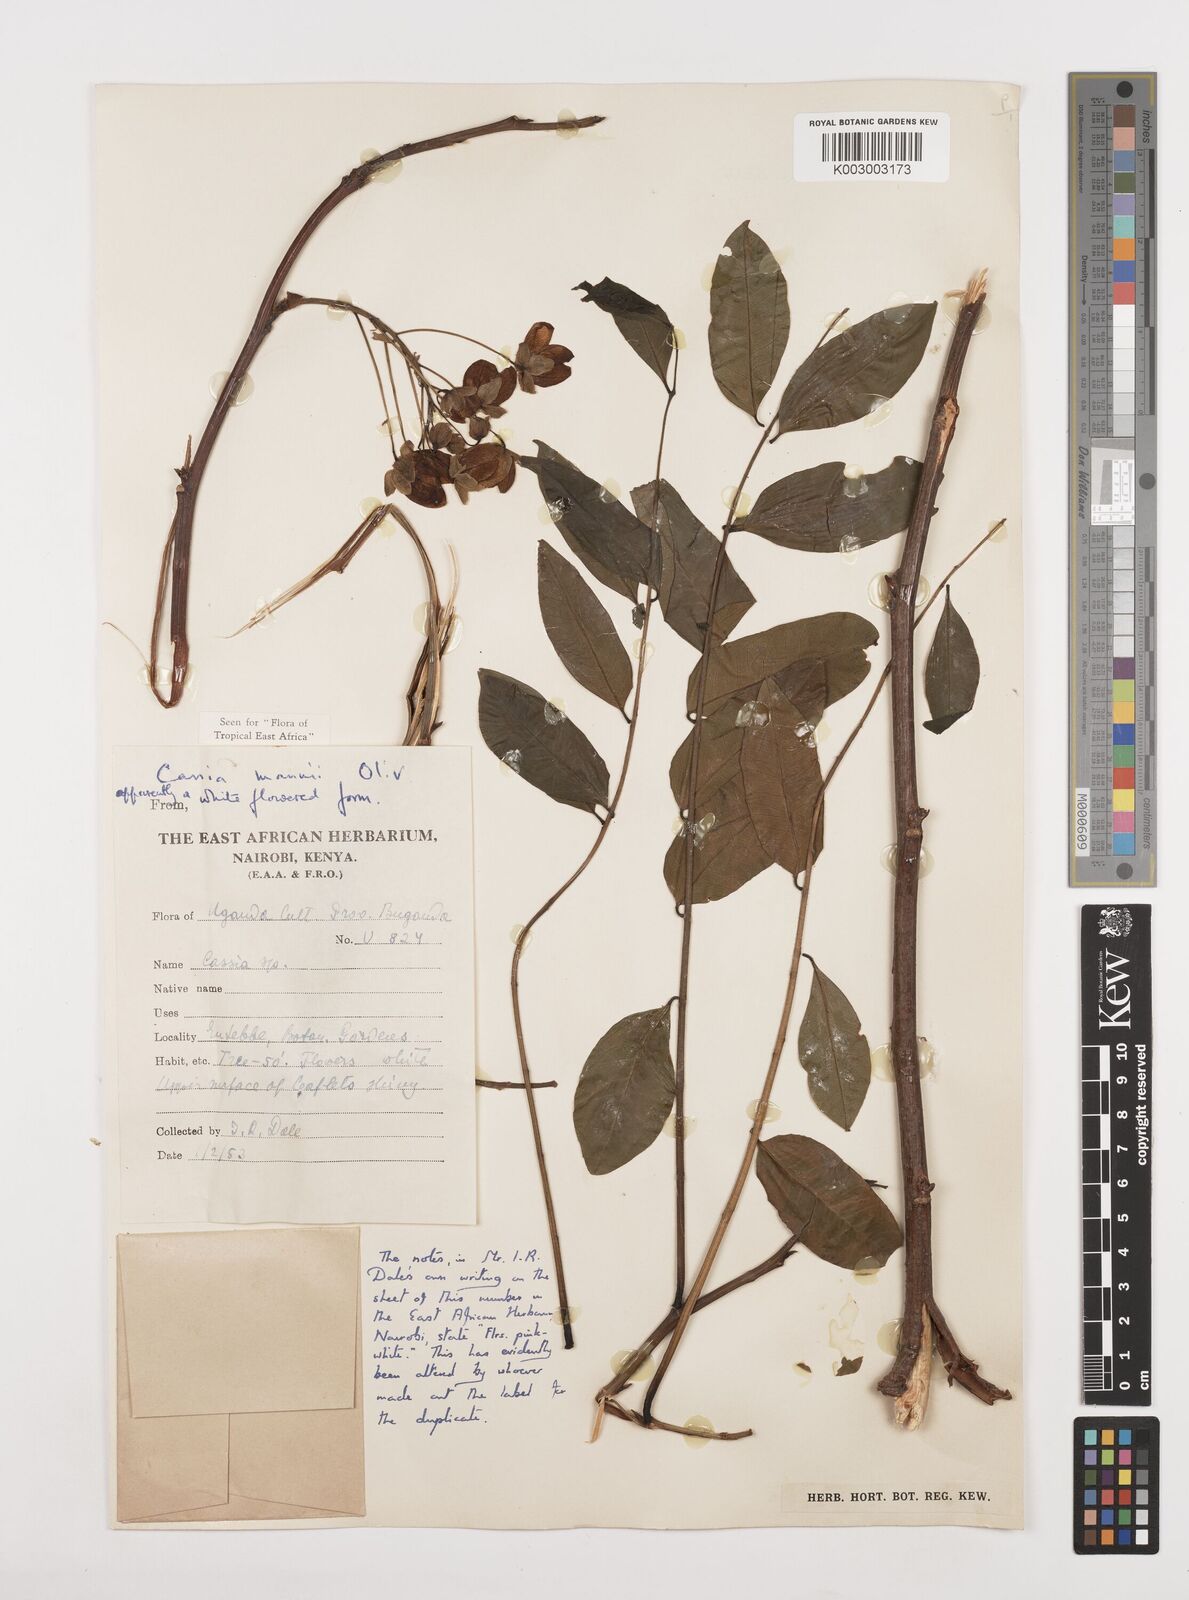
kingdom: Plantae
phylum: Tracheophyta
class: Magnoliopsida
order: Fabales
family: Fabaceae
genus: Cassia
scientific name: Cassia mannii
